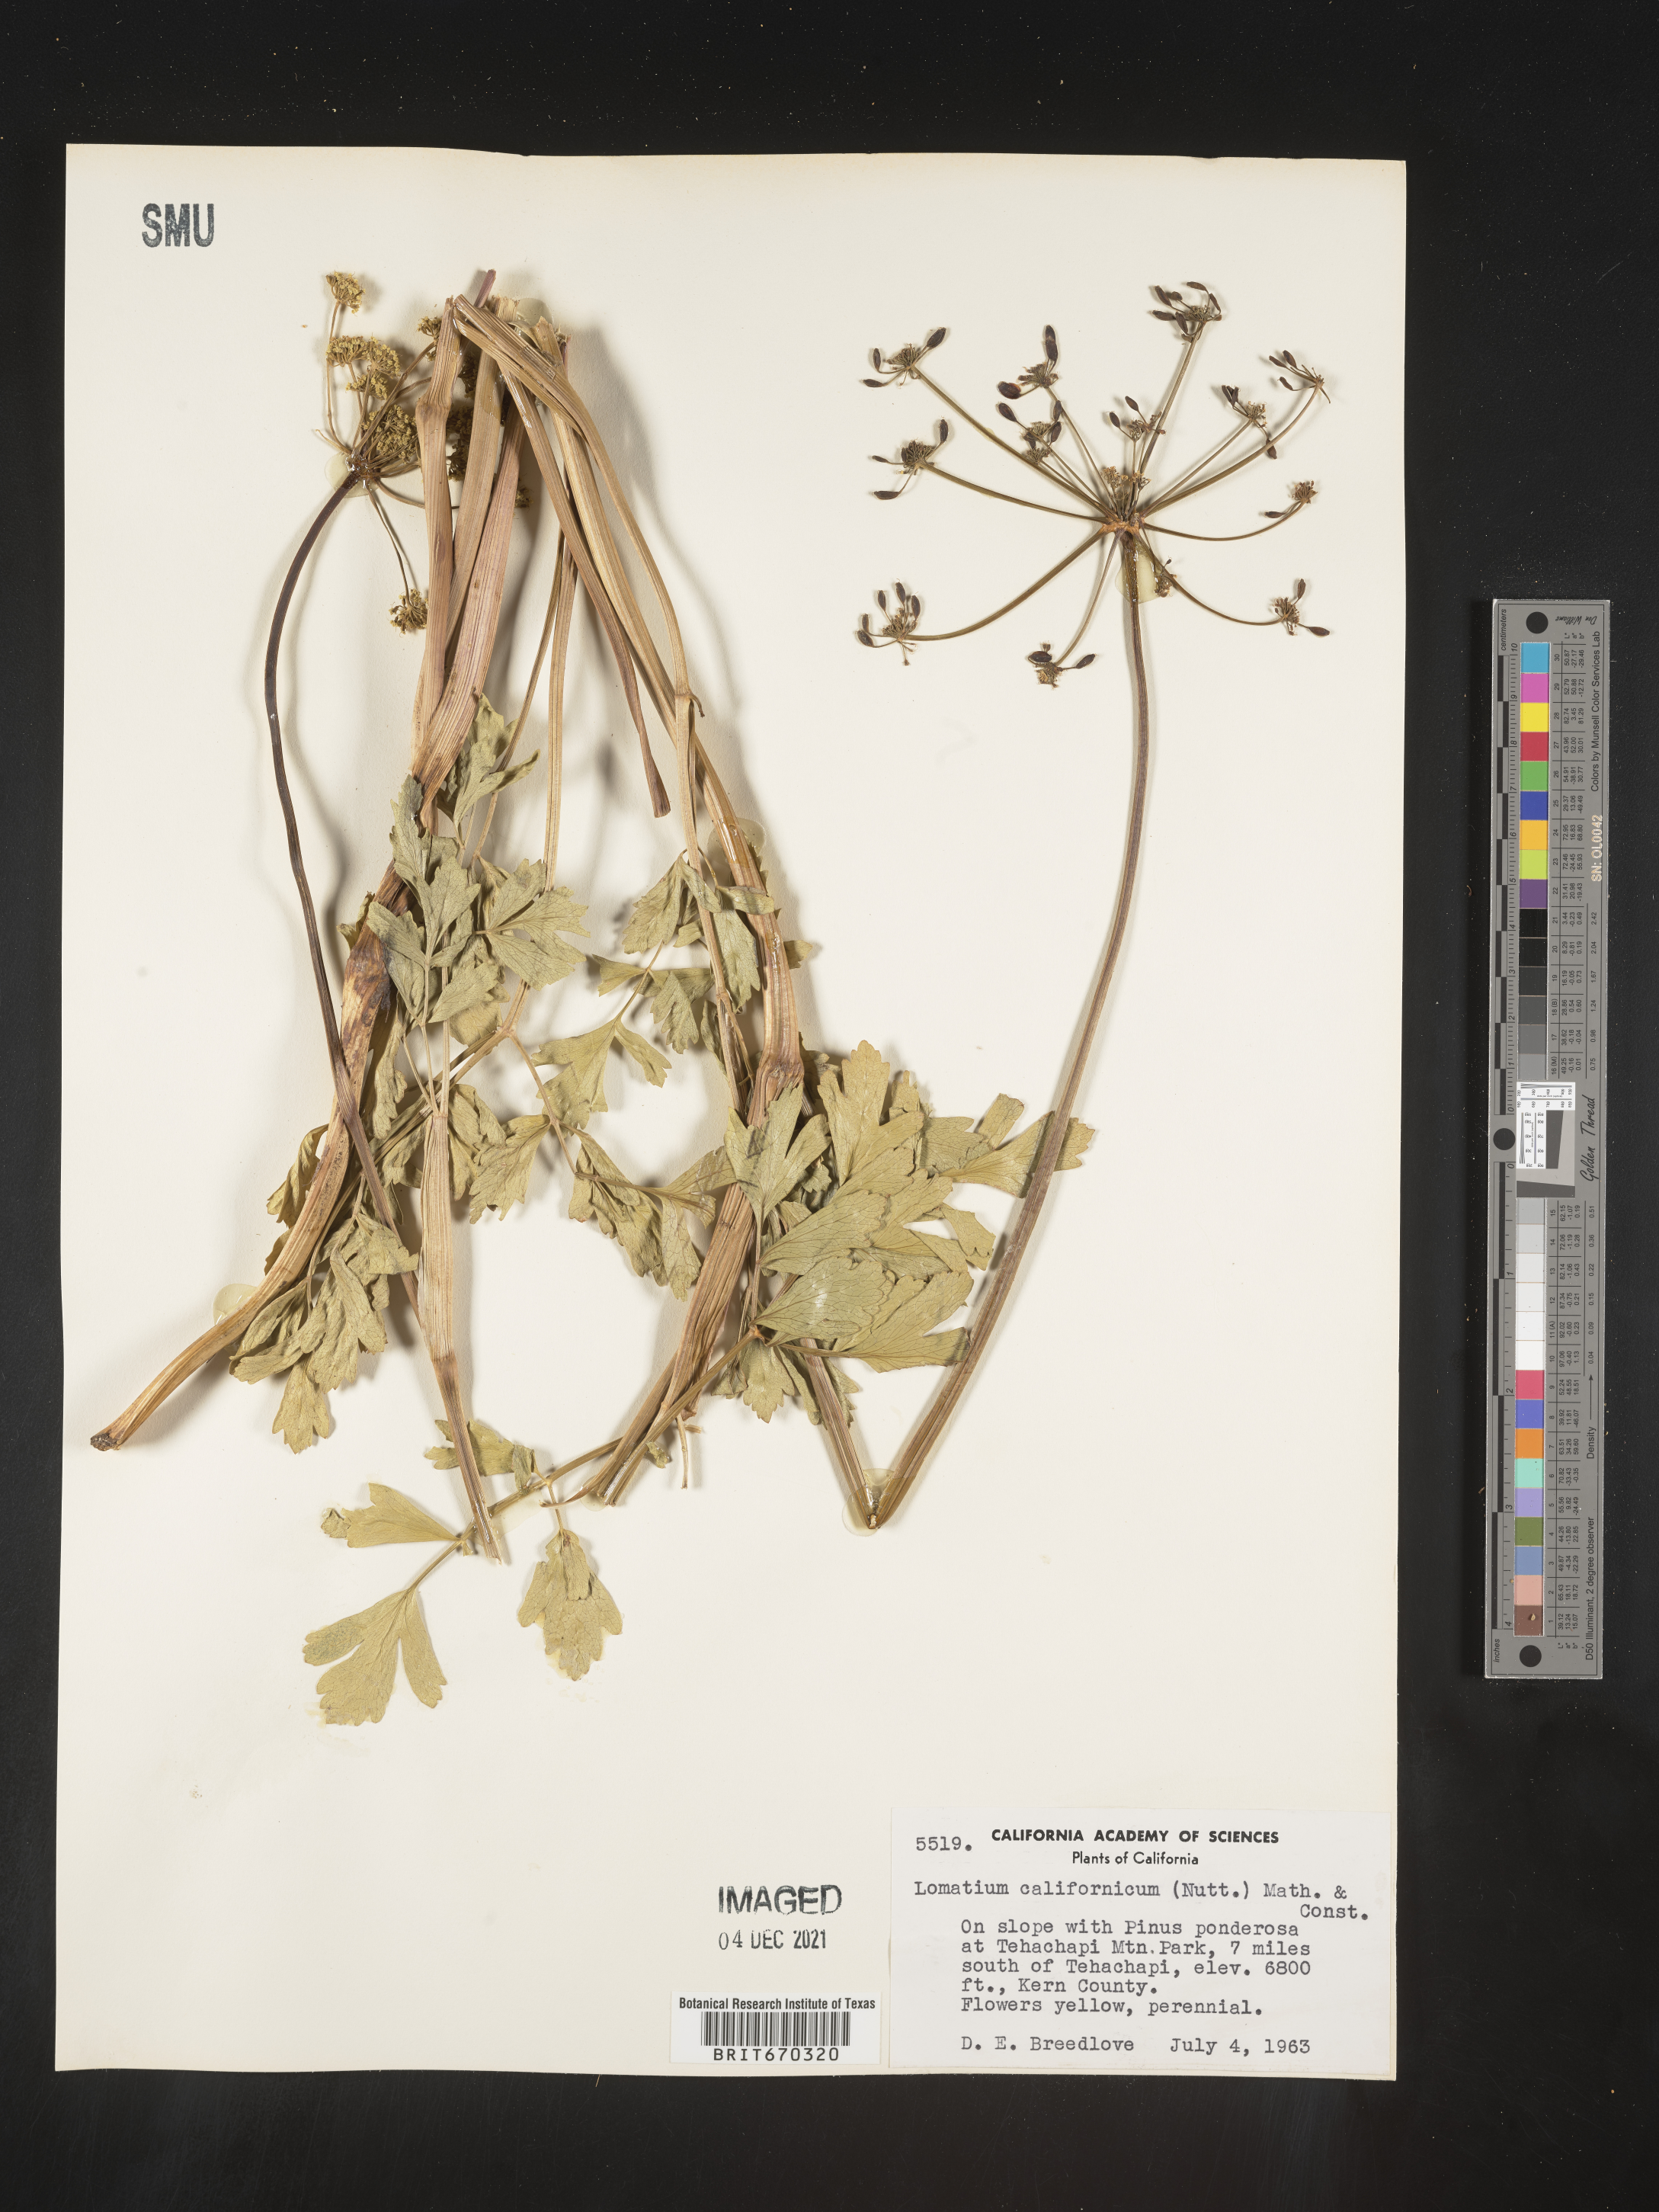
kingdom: Plantae
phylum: Tracheophyta
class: Magnoliopsida
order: Apiales
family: Apiaceae
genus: Lomatium
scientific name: Lomatium californicum
